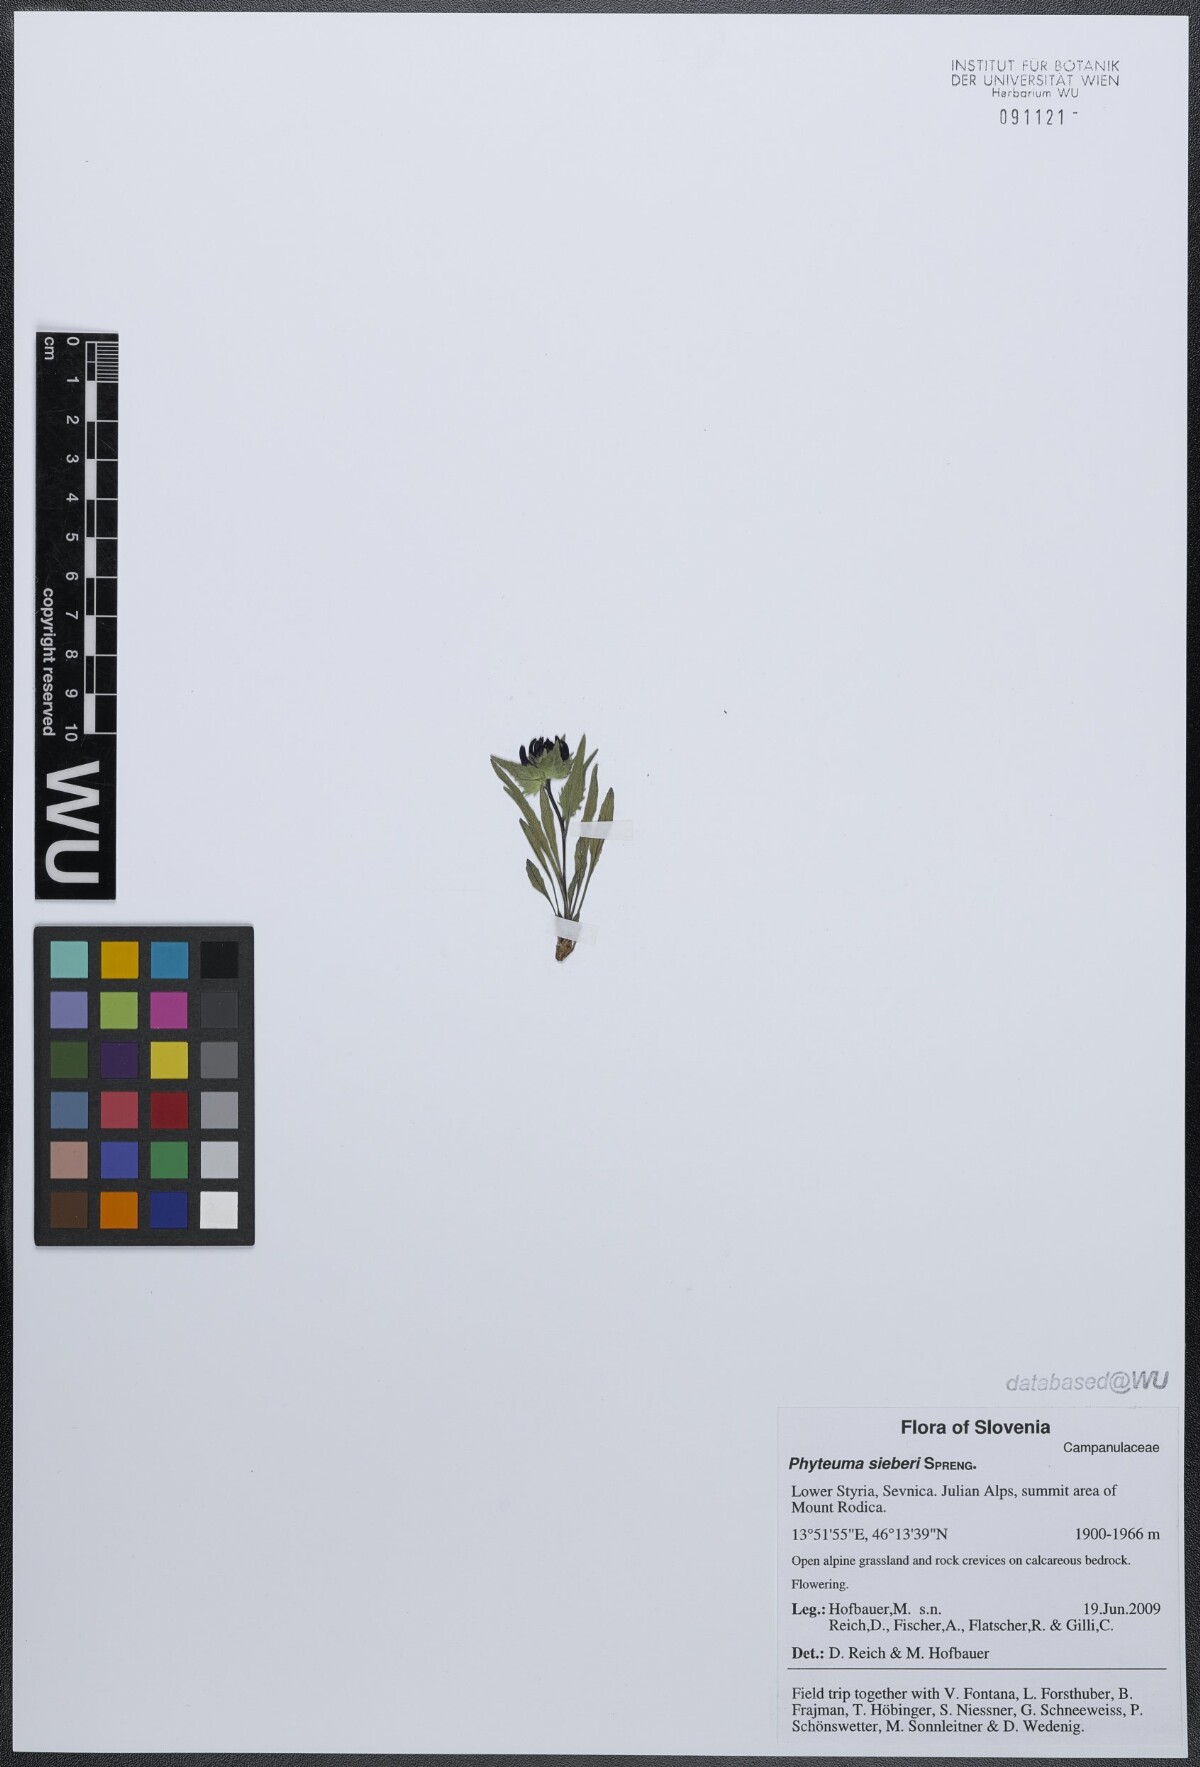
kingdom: Plantae
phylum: Tracheophyta
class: Magnoliopsida
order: Asterales
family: Campanulaceae
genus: Phyteuma
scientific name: Phyteuma sieberi
